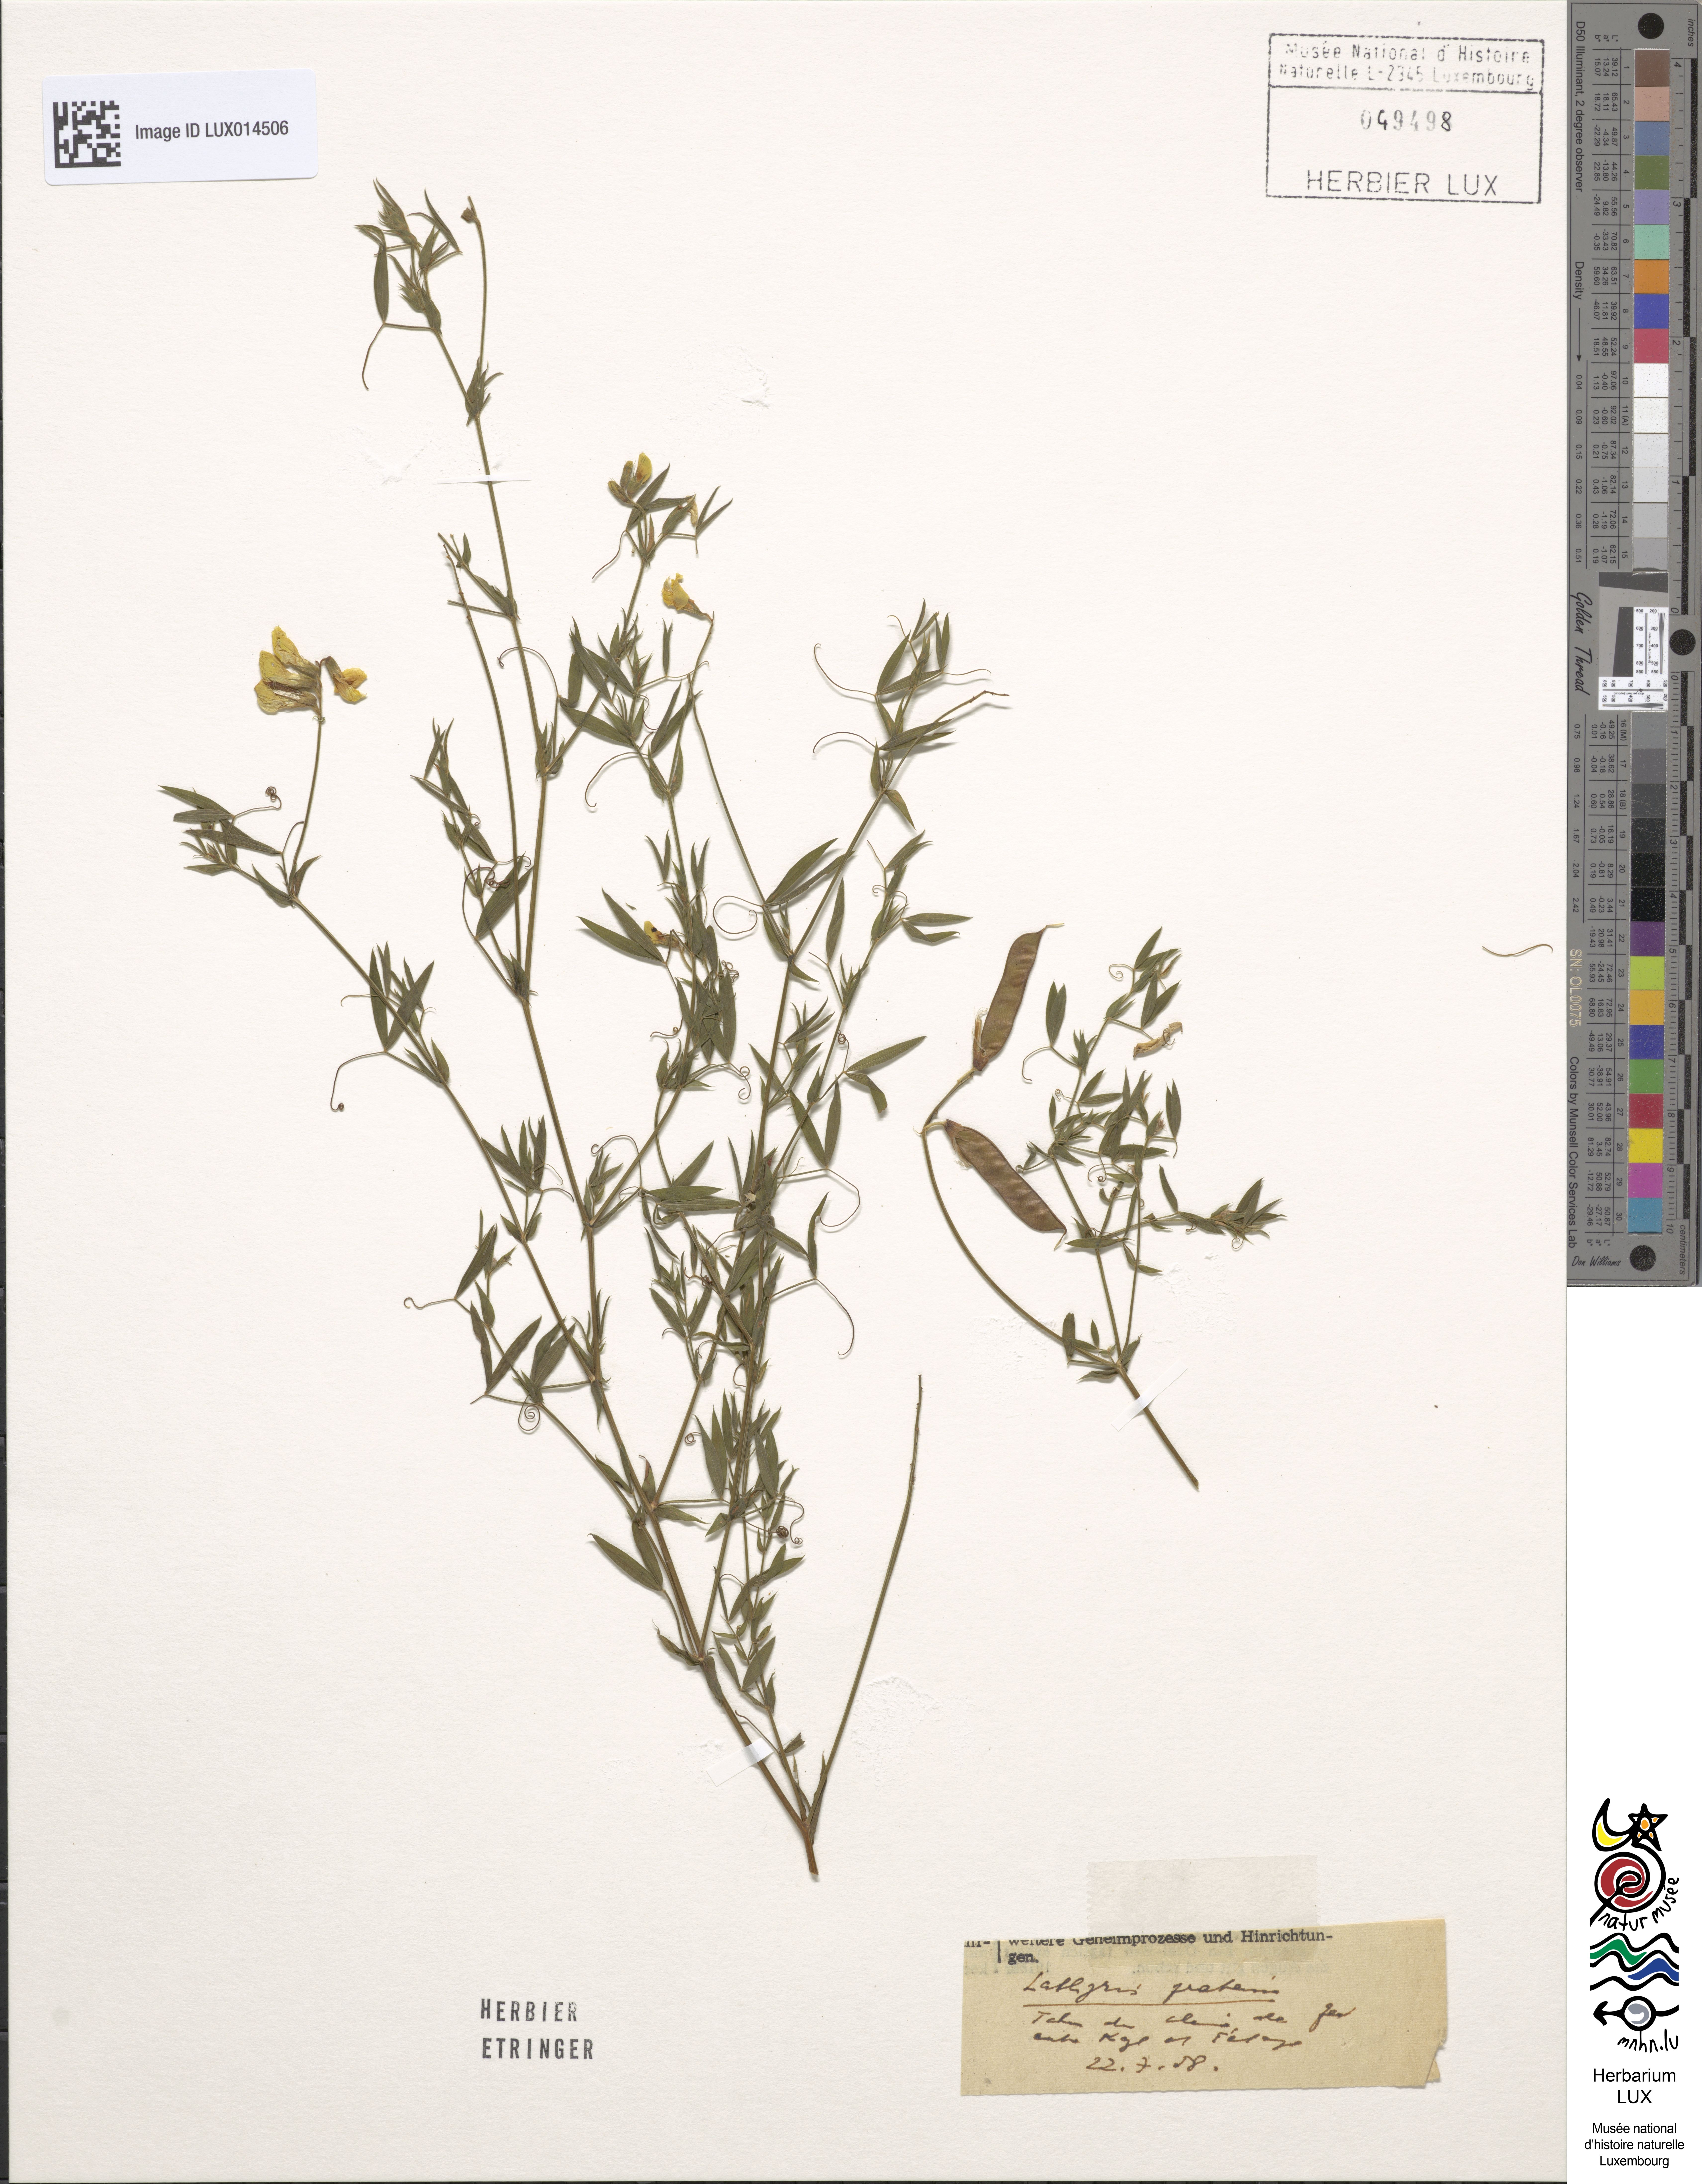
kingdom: Plantae
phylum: Tracheophyta
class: Magnoliopsida
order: Fabales
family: Fabaceae
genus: Lathyrus
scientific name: Lathyrus pratensis
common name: Meadow vetchling
